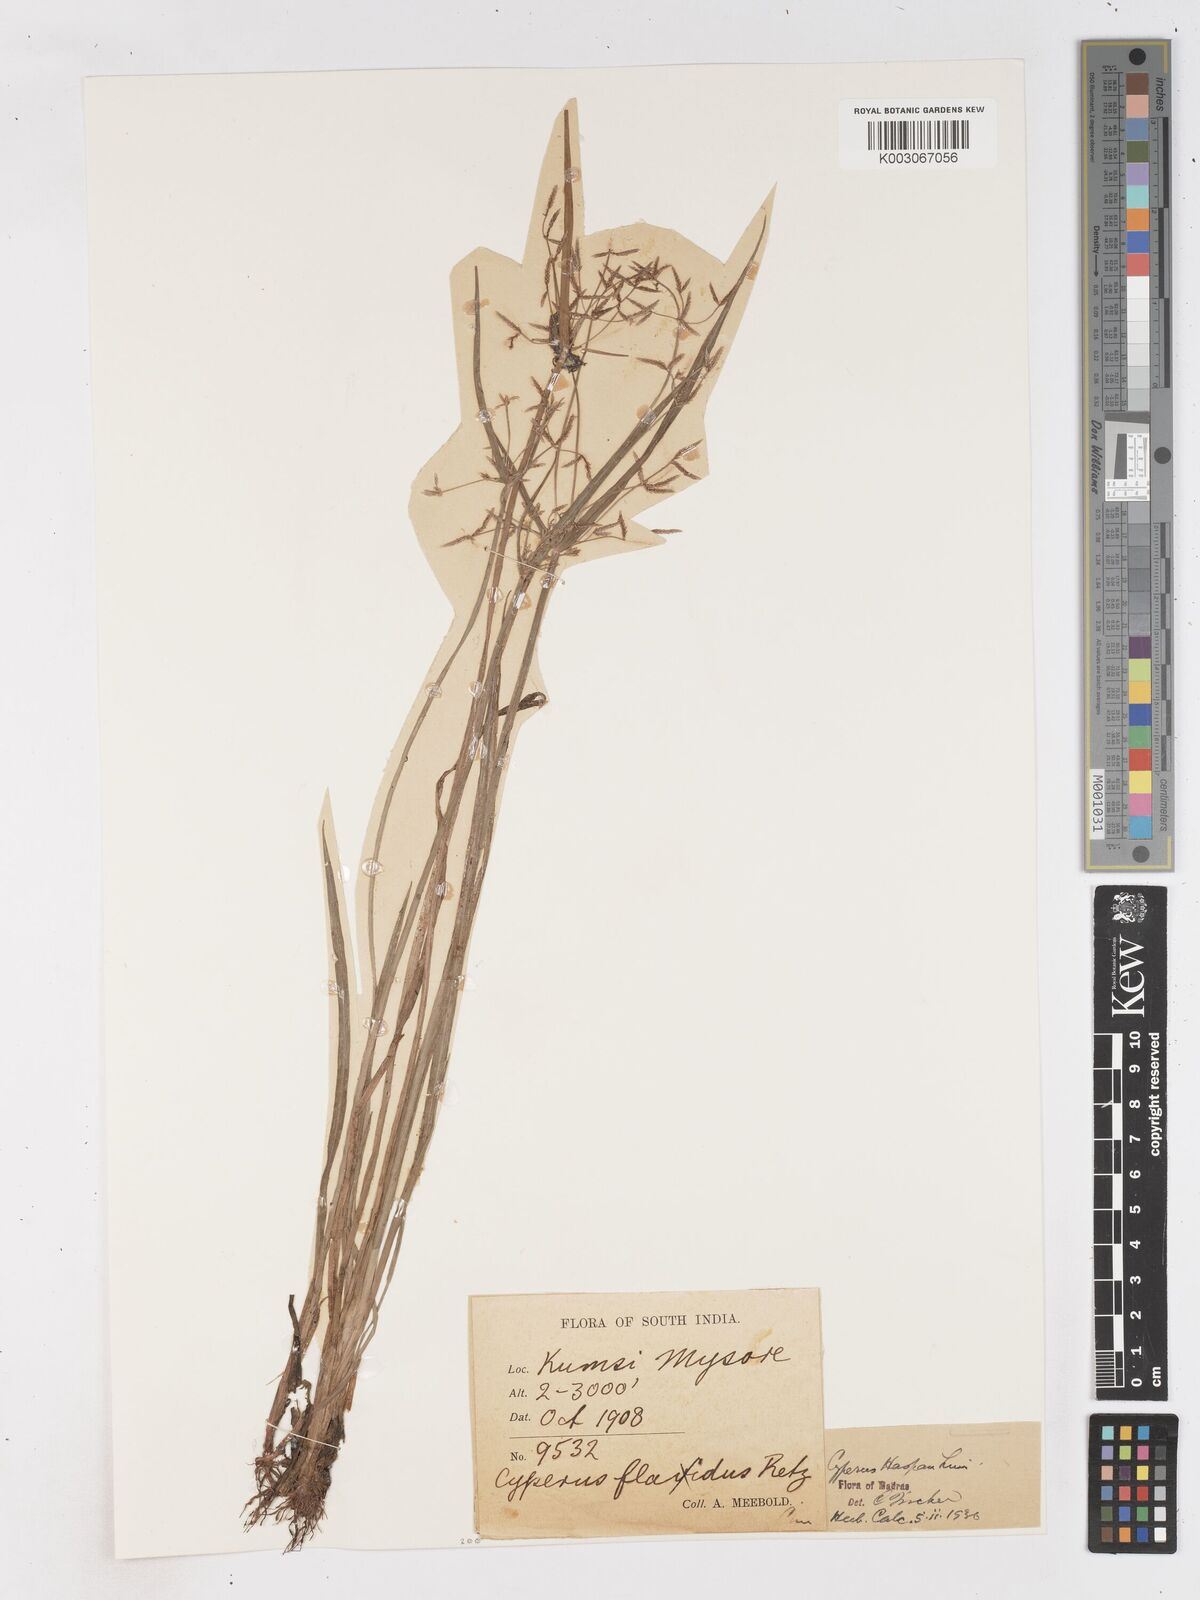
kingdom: Plantae
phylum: Tracheophyta
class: Liliopsida
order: Poales
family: Cyperaceae
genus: Cyperus
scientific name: Cyperus haspan
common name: Haspan flatsedge
